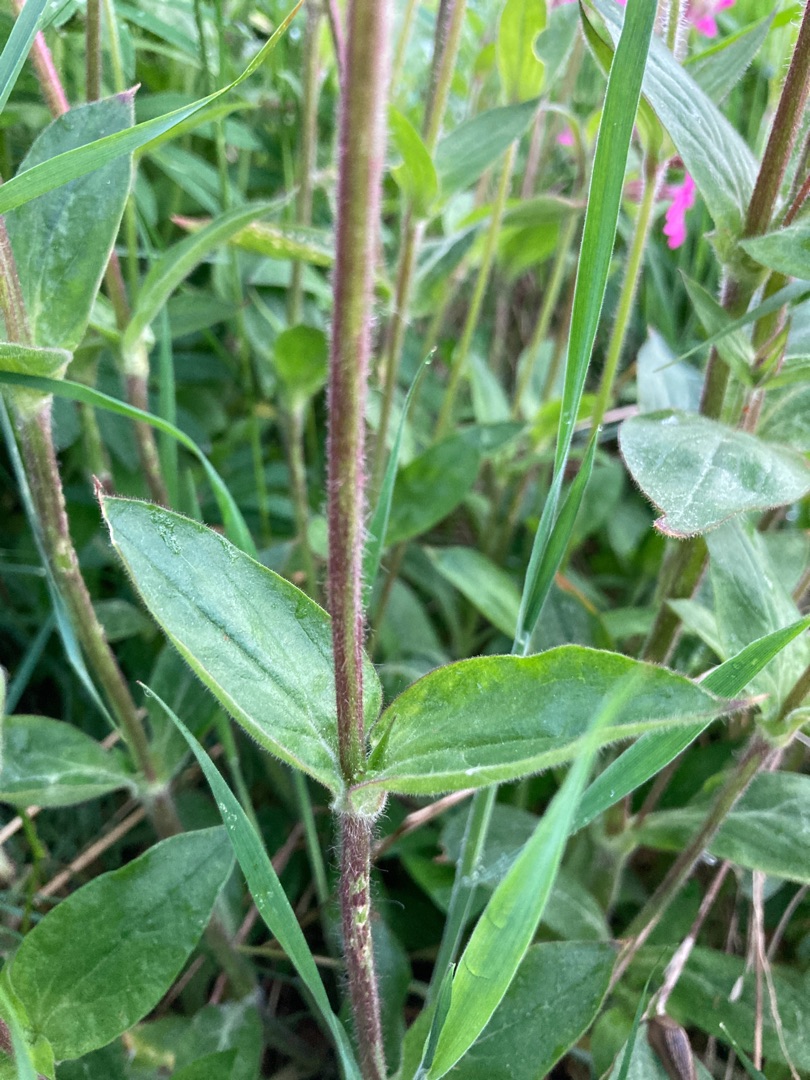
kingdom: Plantae
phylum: Tracheophyta
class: Magnoliopsida
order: Caryophyllales
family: Caryophyllaceae
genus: Silene
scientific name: Silene dioica
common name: Dagpragtstjerne
